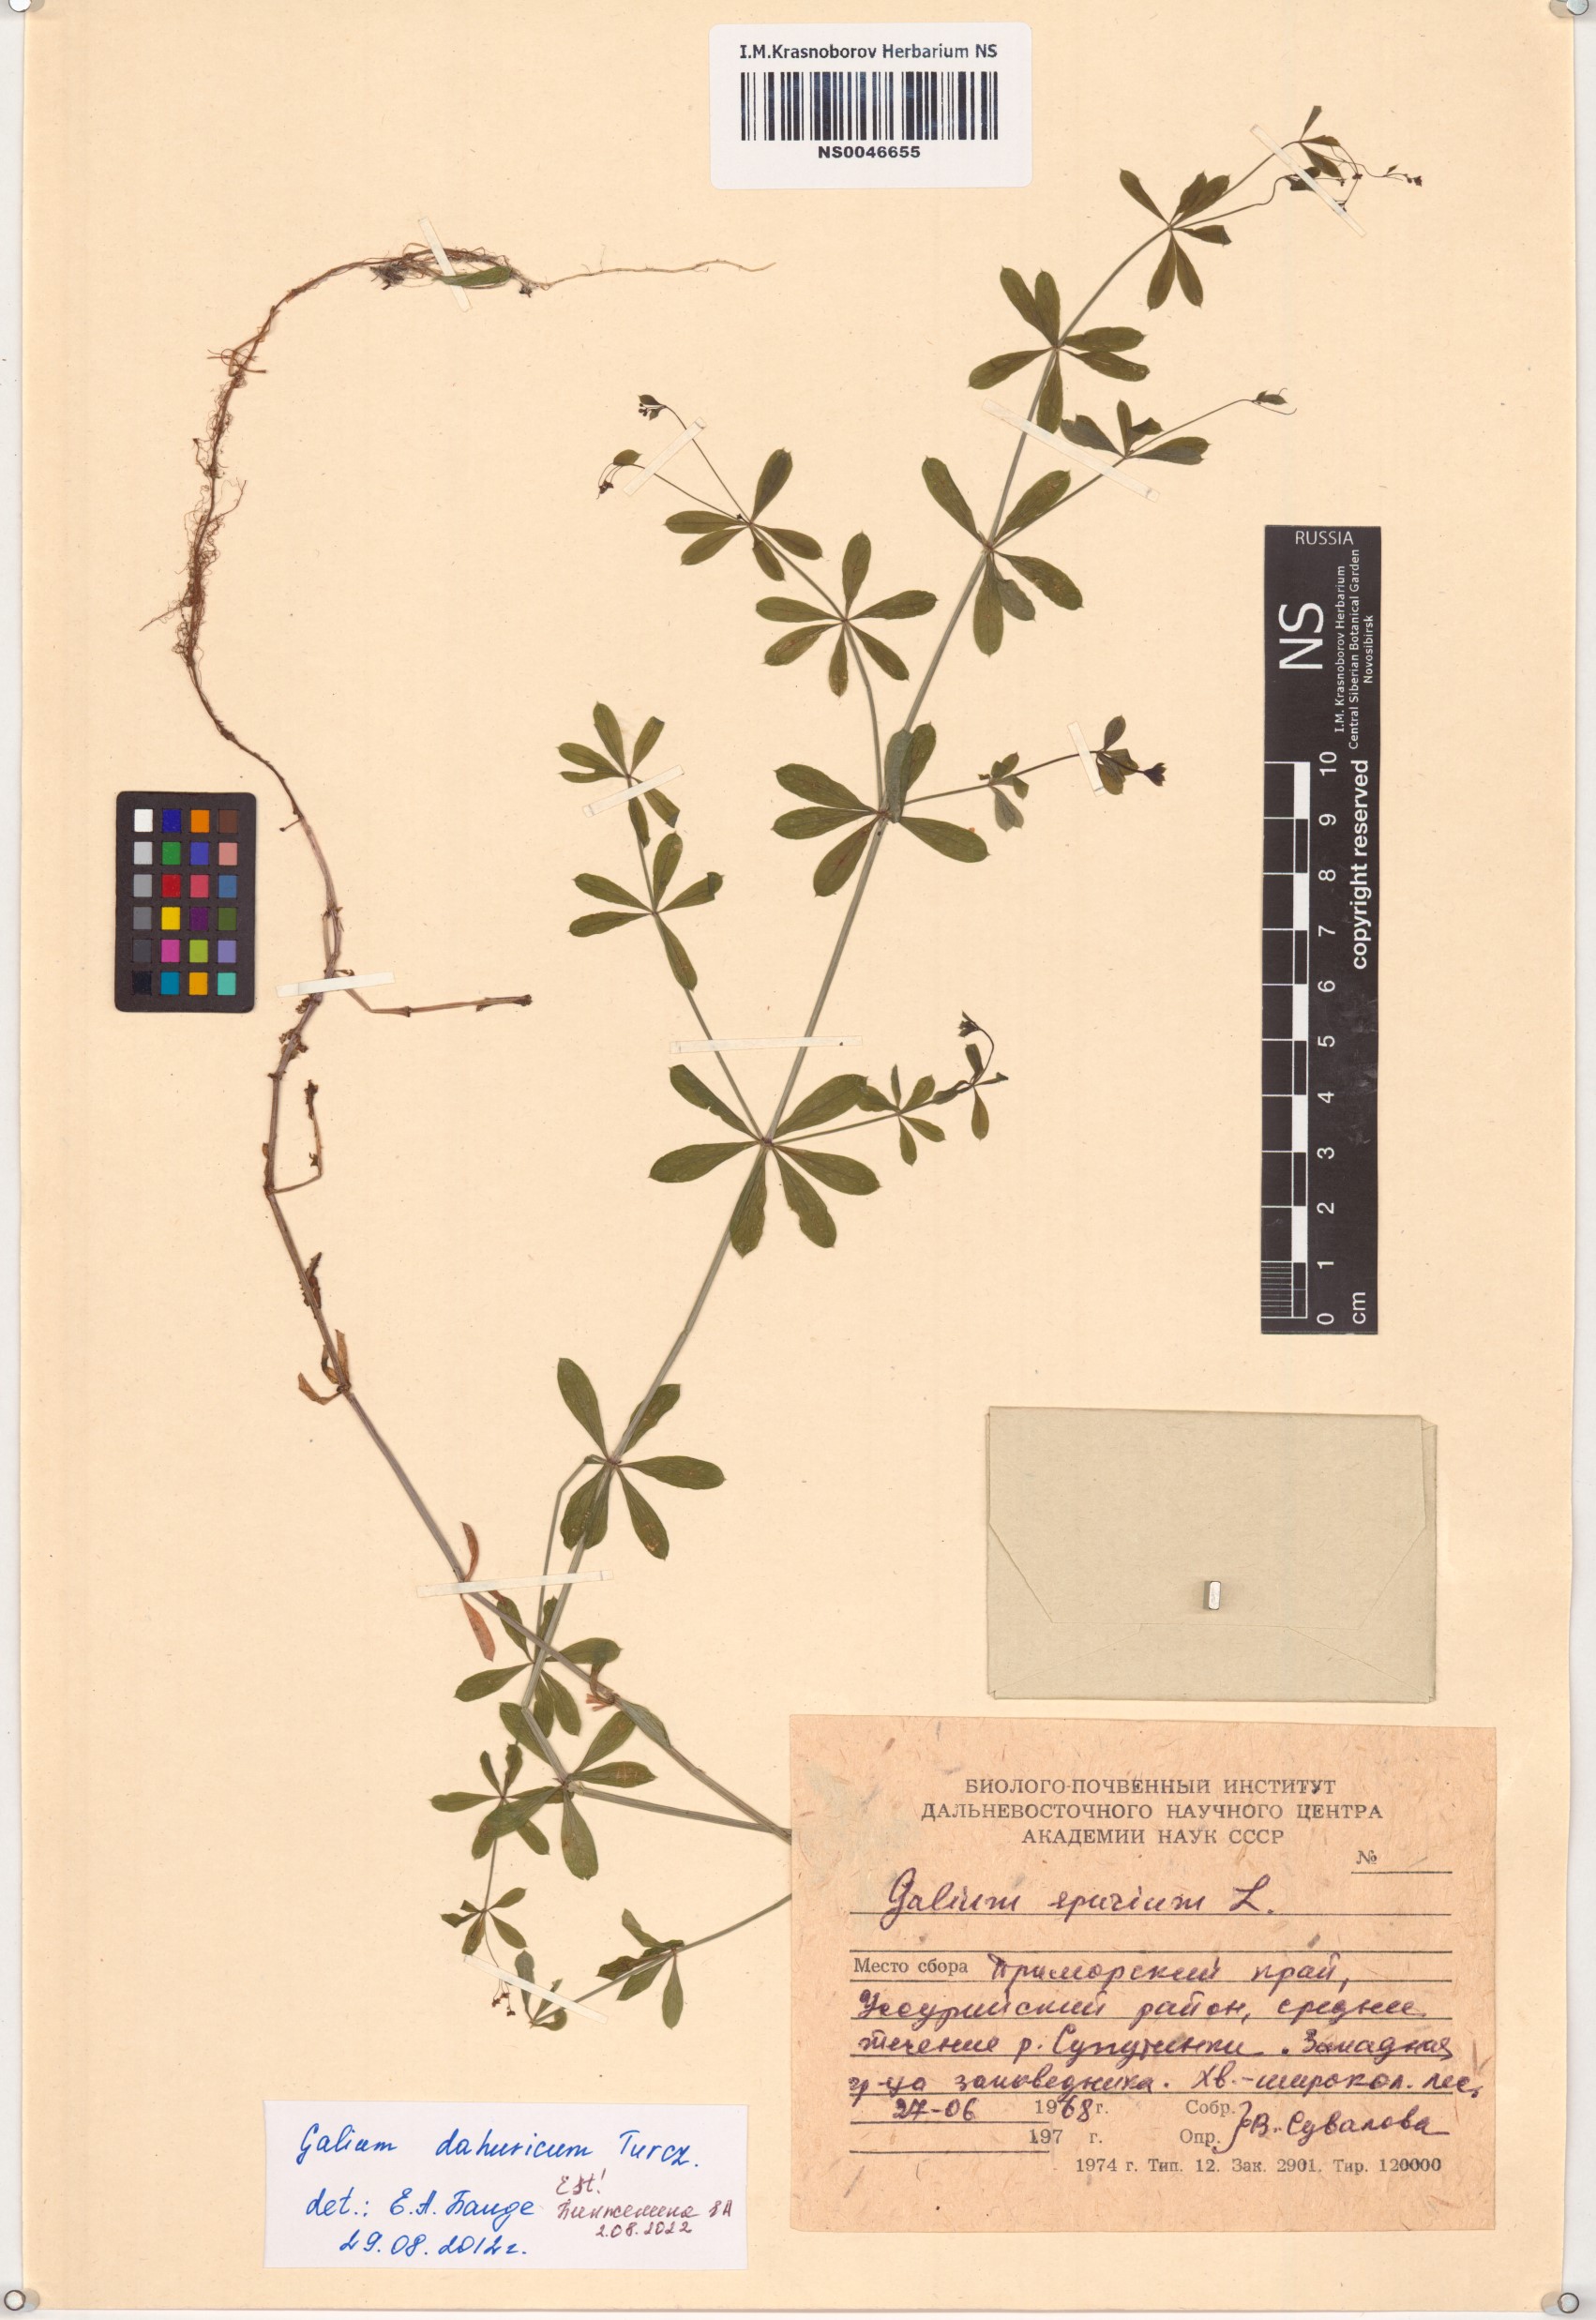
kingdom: Plantae
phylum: Tracheophyta
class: Magnoliopsida
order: Gentianales
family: Rubiaceae
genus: Galium
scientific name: Galium dahuricum
